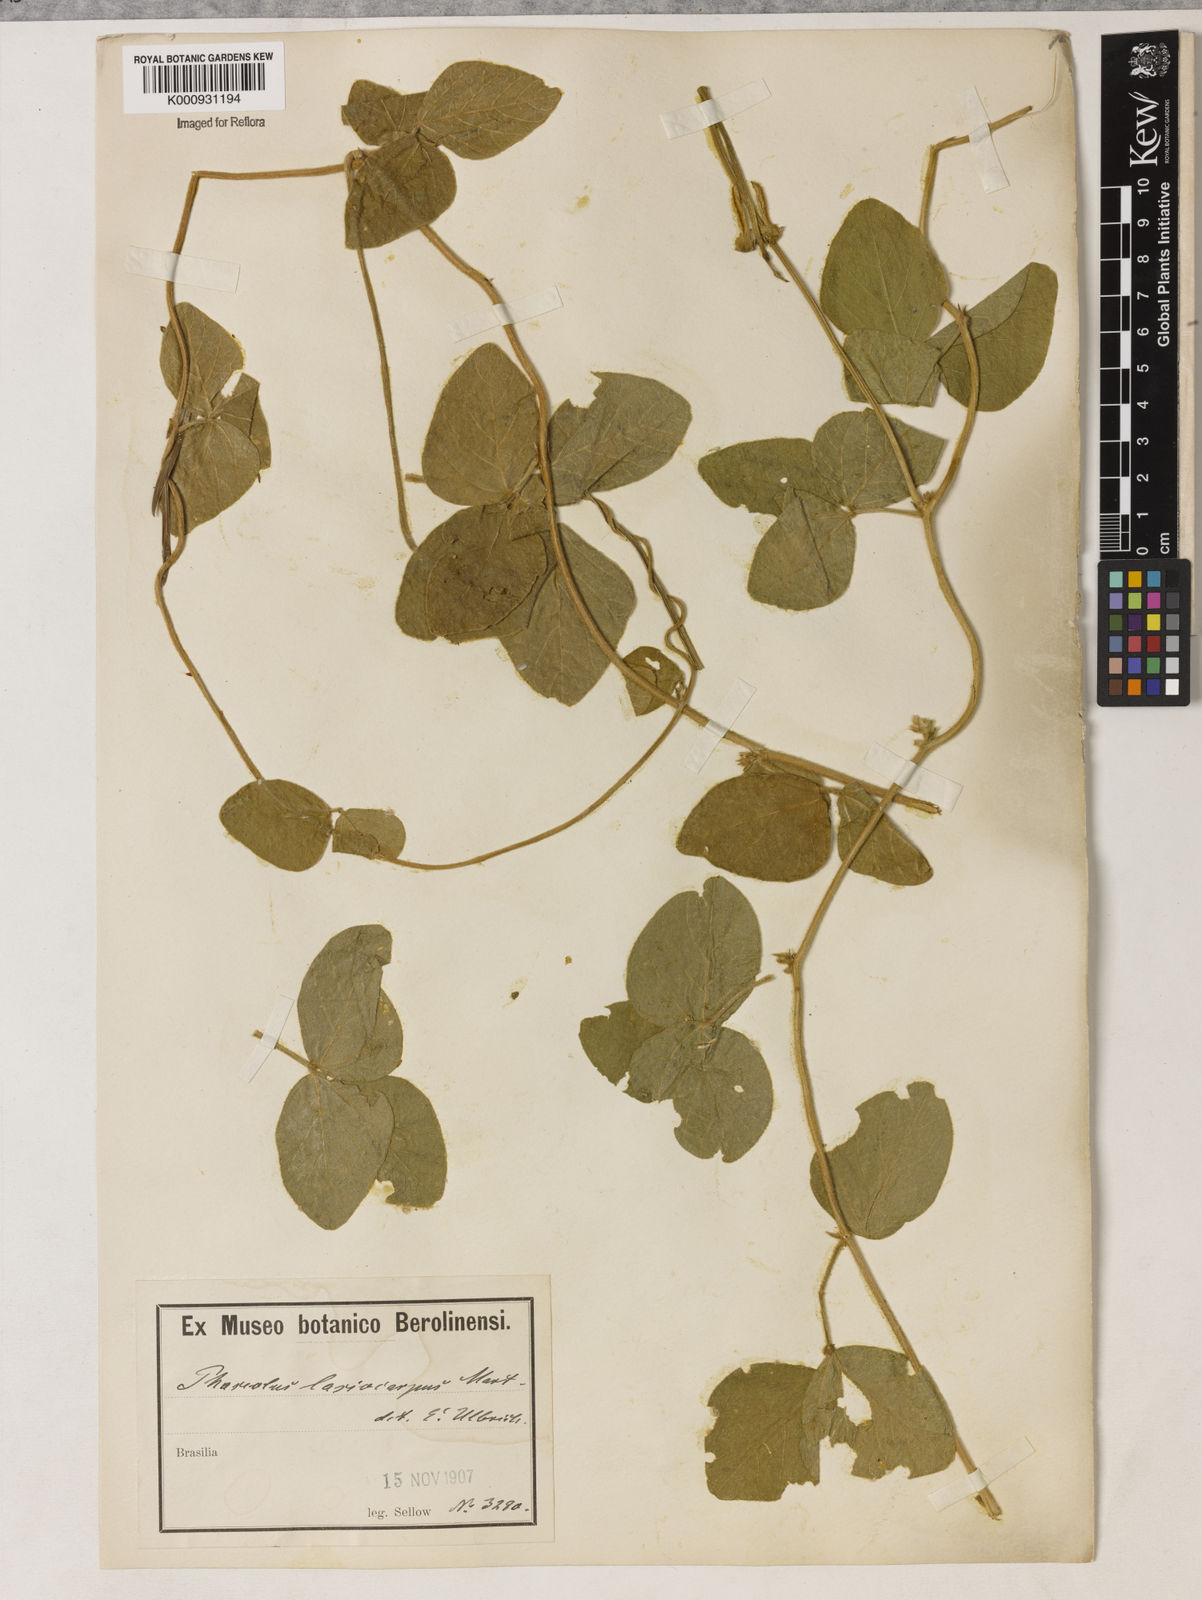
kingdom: Plantae
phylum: Tracheophyta
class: Magnoliopsida
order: Fabales
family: Fabaceae
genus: Vigna
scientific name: Vigna lasiocarpa
